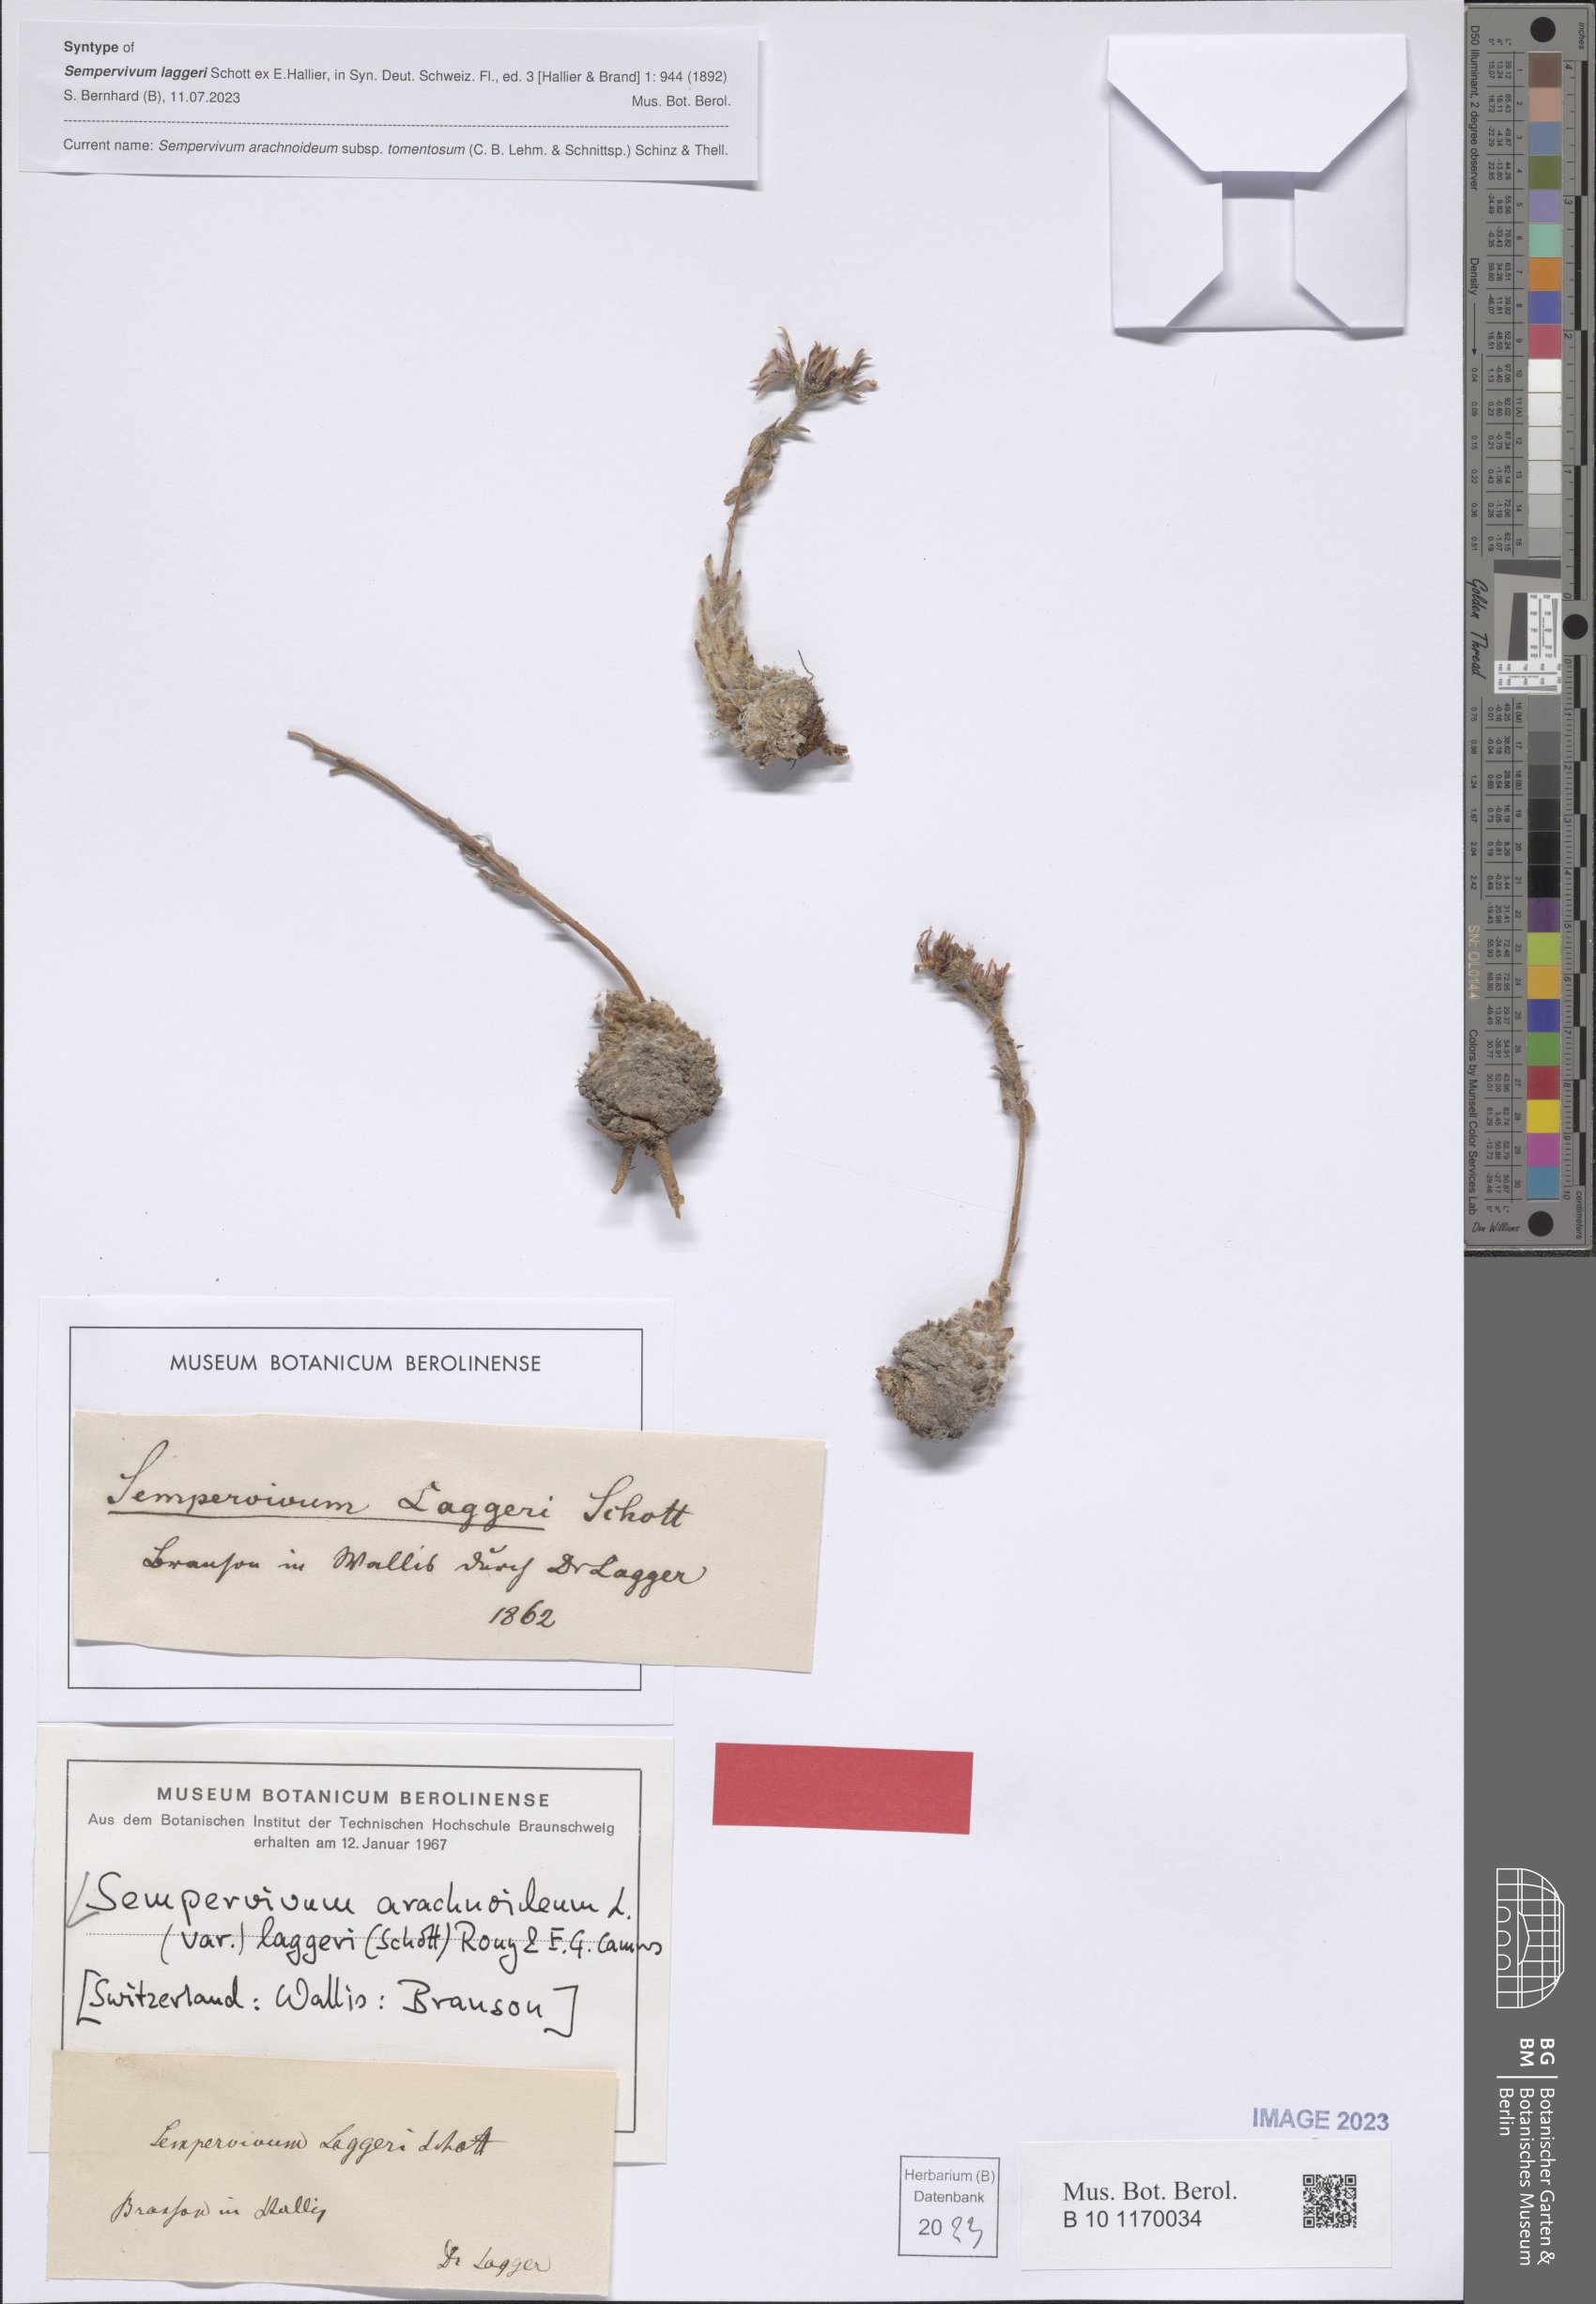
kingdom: Plantae
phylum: Tracheophyta
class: Magnoliopsida
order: Saxifragales
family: Crassulaceae
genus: Sempervivum
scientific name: Sempervivum arachnoideum
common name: Cobweb house-leek
